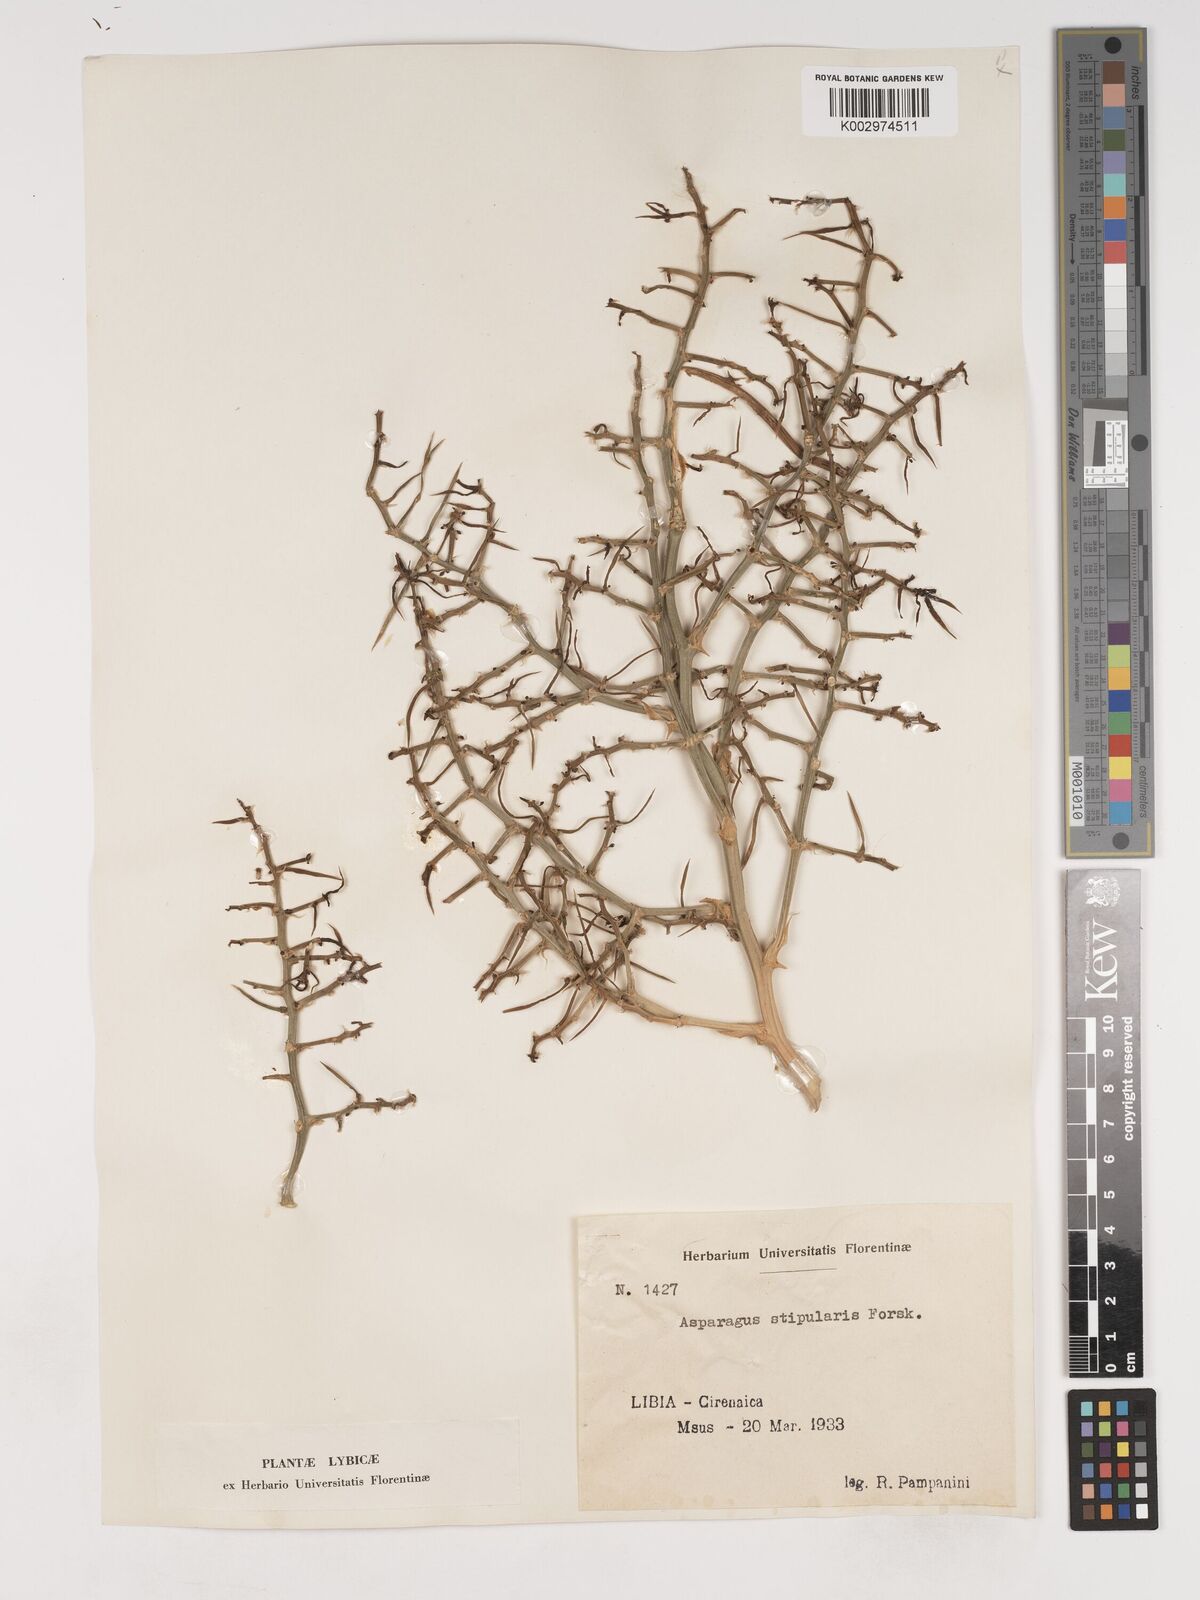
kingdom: Plantae
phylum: Tracheophyta
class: Liliopsida
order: Asparagales
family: Asparagaceae
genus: Asparagus
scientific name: Asparagus stipulaceus
